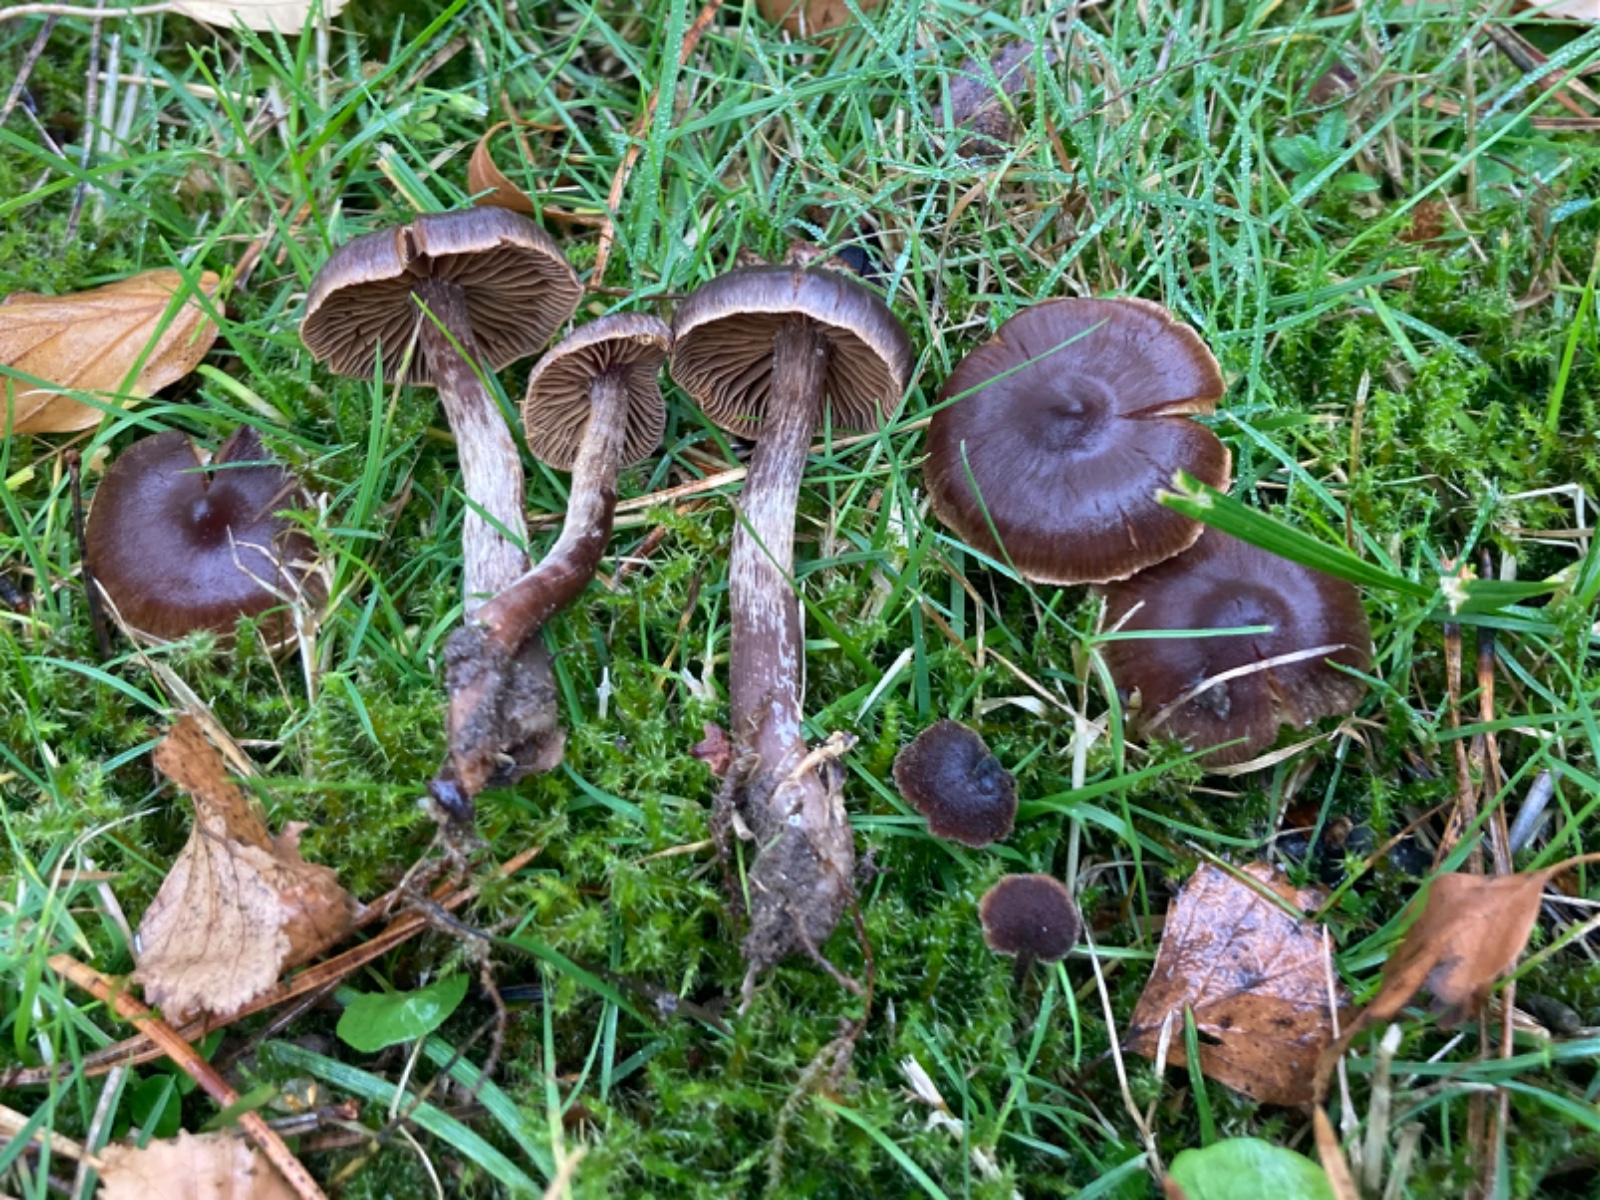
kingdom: Fungi
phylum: Basidiomycota
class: Agaricomycetes
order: Agaricales
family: Cortinariaceae
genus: Cortinarius
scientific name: Cortinarius umbrinolens
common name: mørk slørhat
